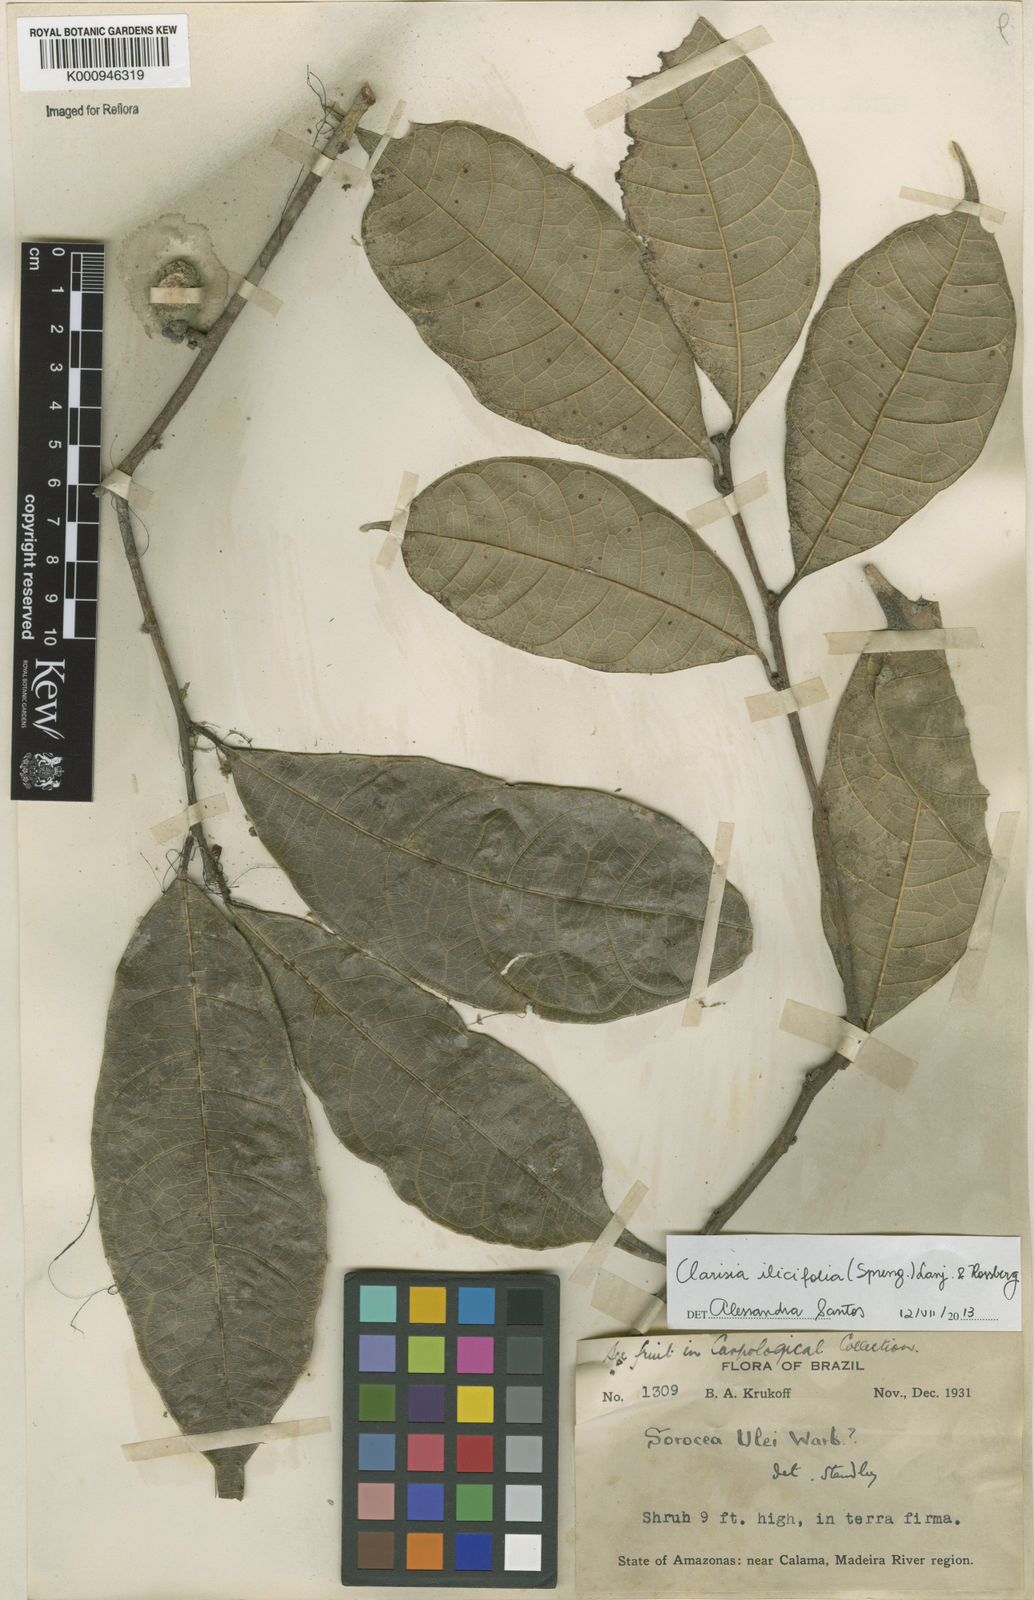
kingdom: Plantae
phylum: Tracheophyta
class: Magnoliopsida
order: Rosales
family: Moraceae
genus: Clarisia
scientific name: Clarisia ilicifolia
